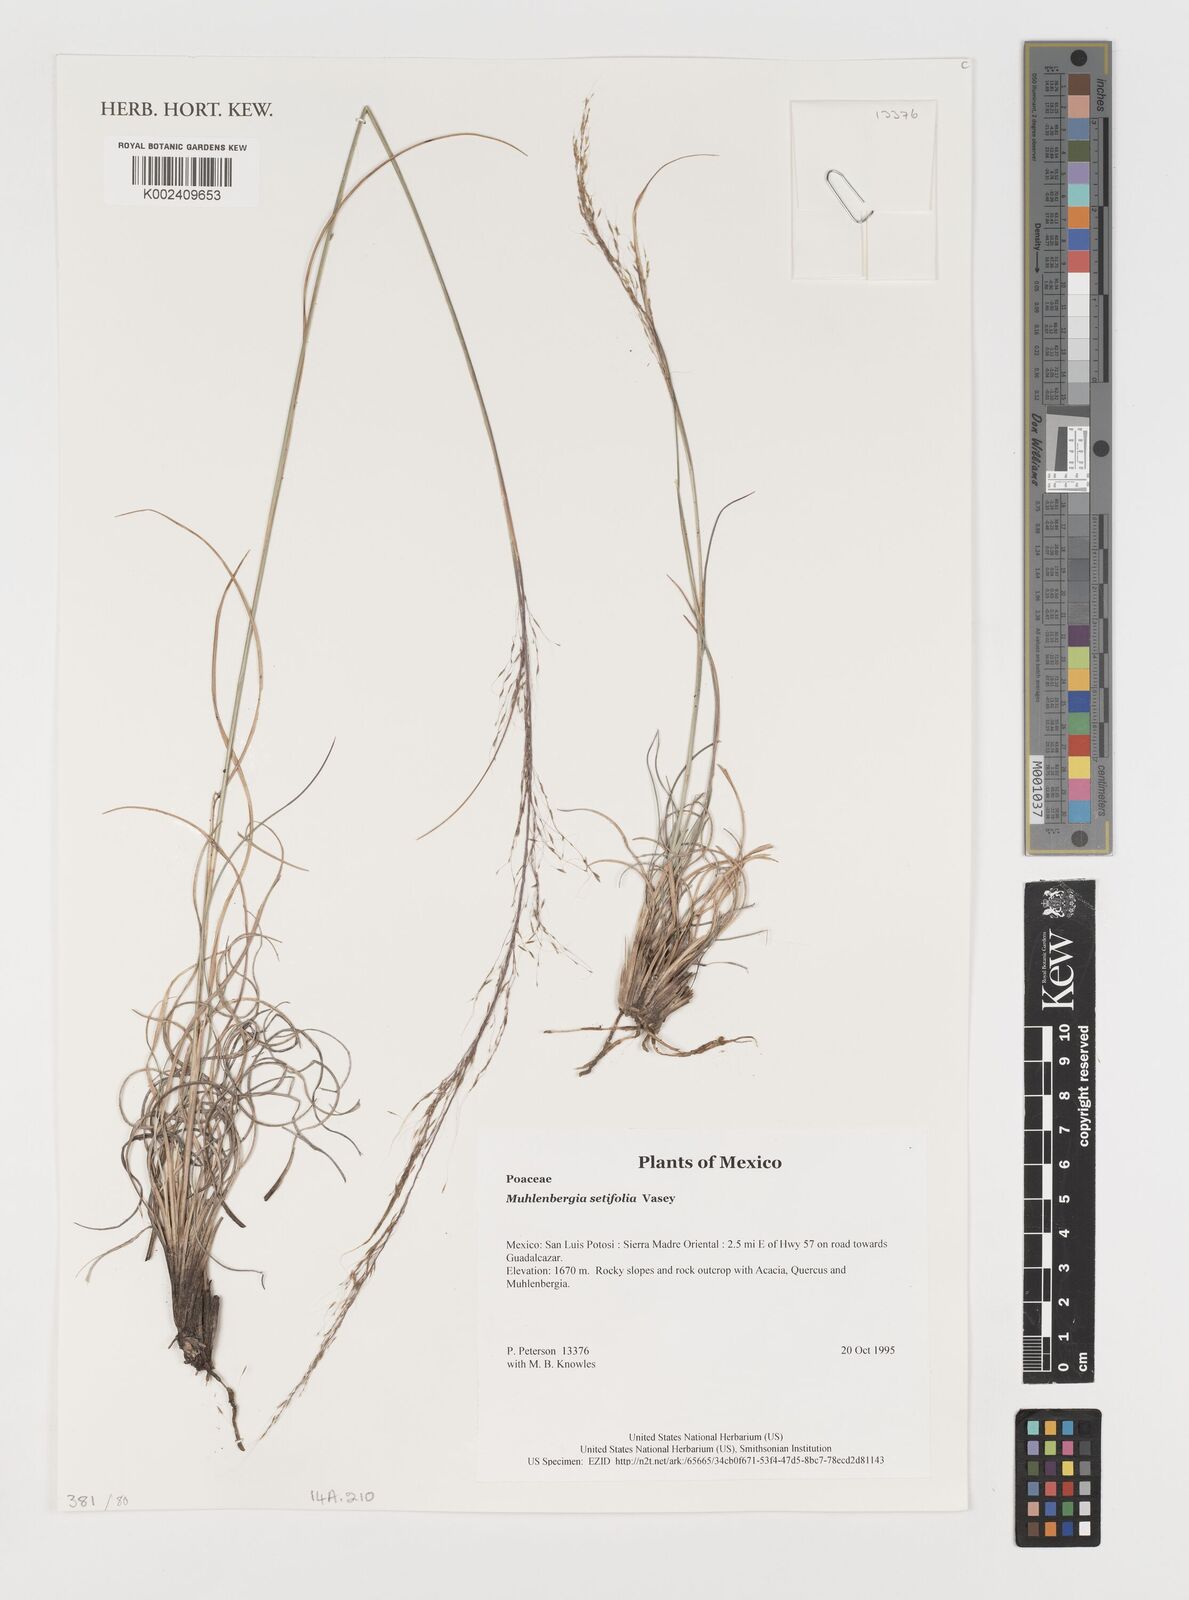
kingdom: Plantae
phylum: Tracheophyta
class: Liliopsida
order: Poales
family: Poaceae
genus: Muhlenbergia
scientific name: Muhlenbergia setifolia
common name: Curly-leaf muhly
